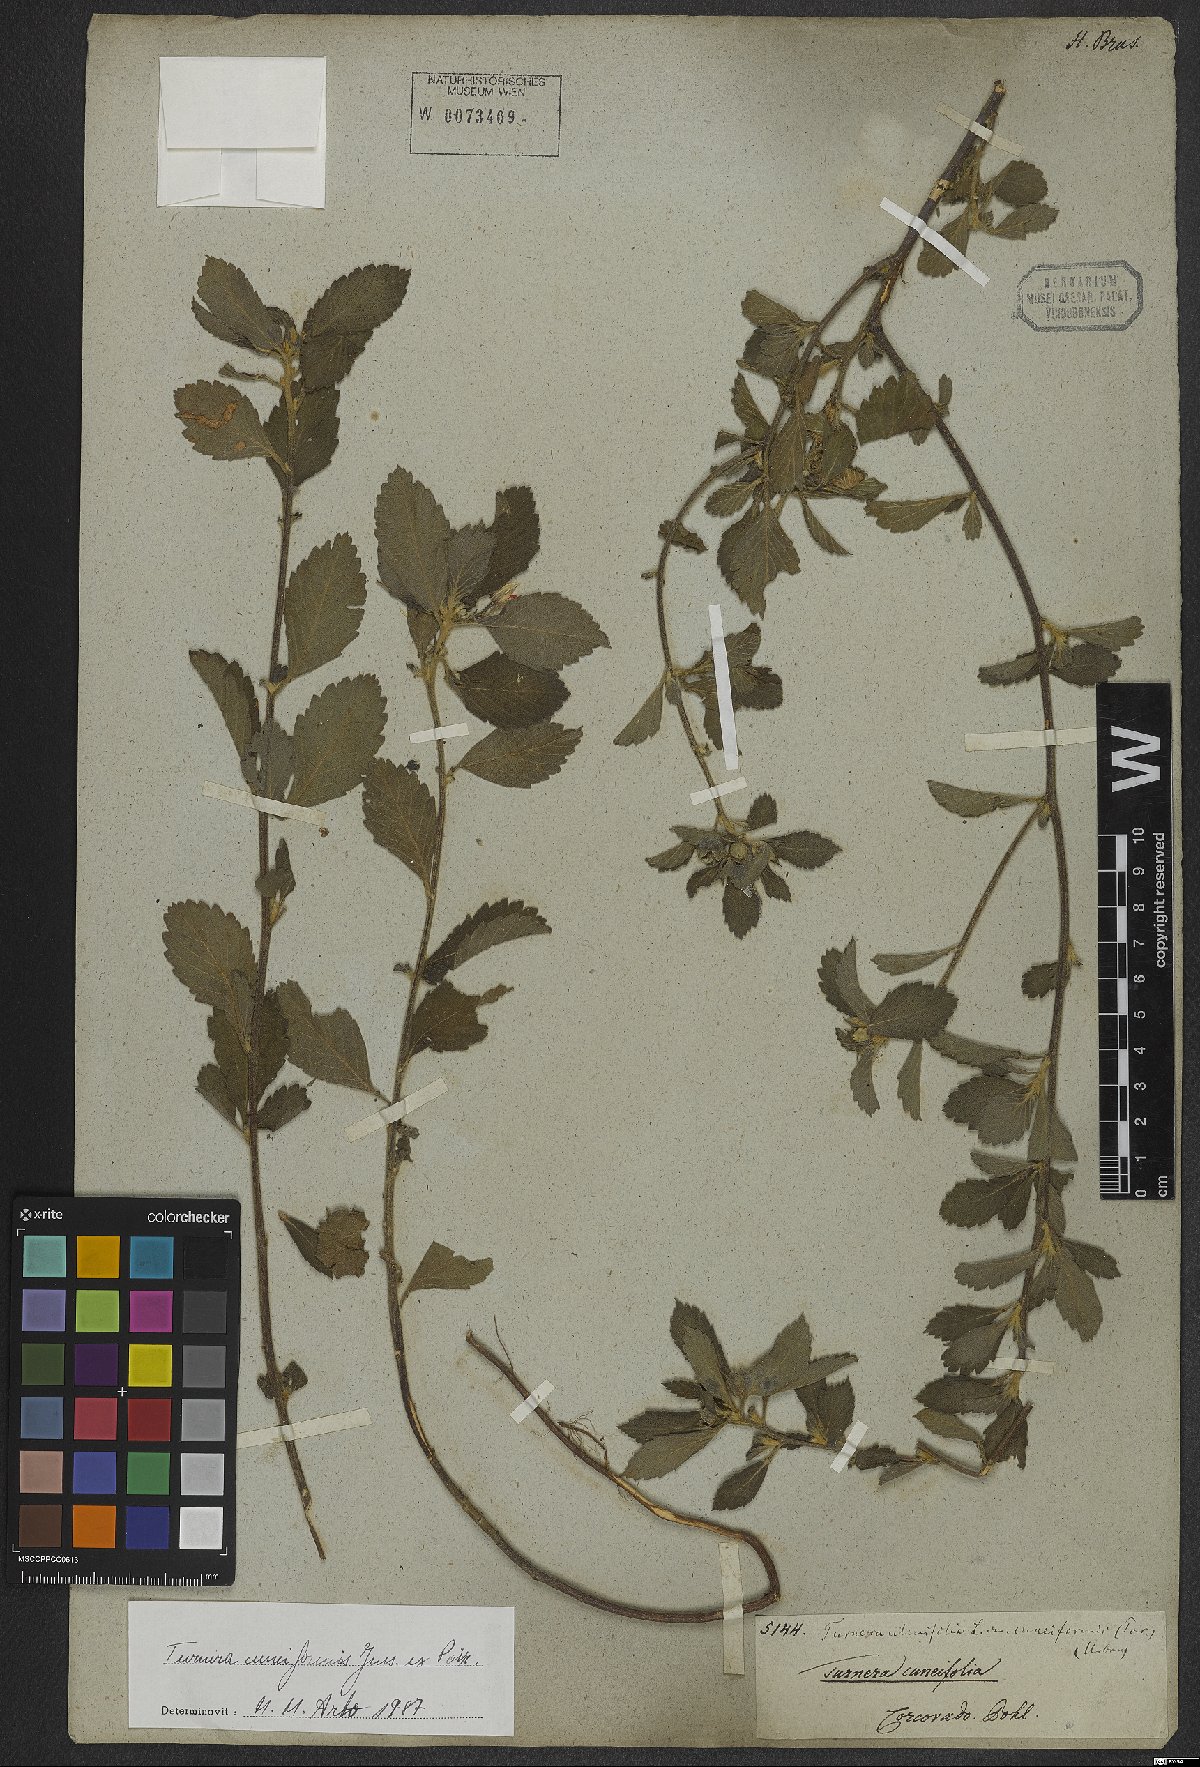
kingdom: Plantae
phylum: Tracheophyta
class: Magnoliopsida
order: Malpighiales
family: Turneraceae
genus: Turnera
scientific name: Turnera cuneiformis
